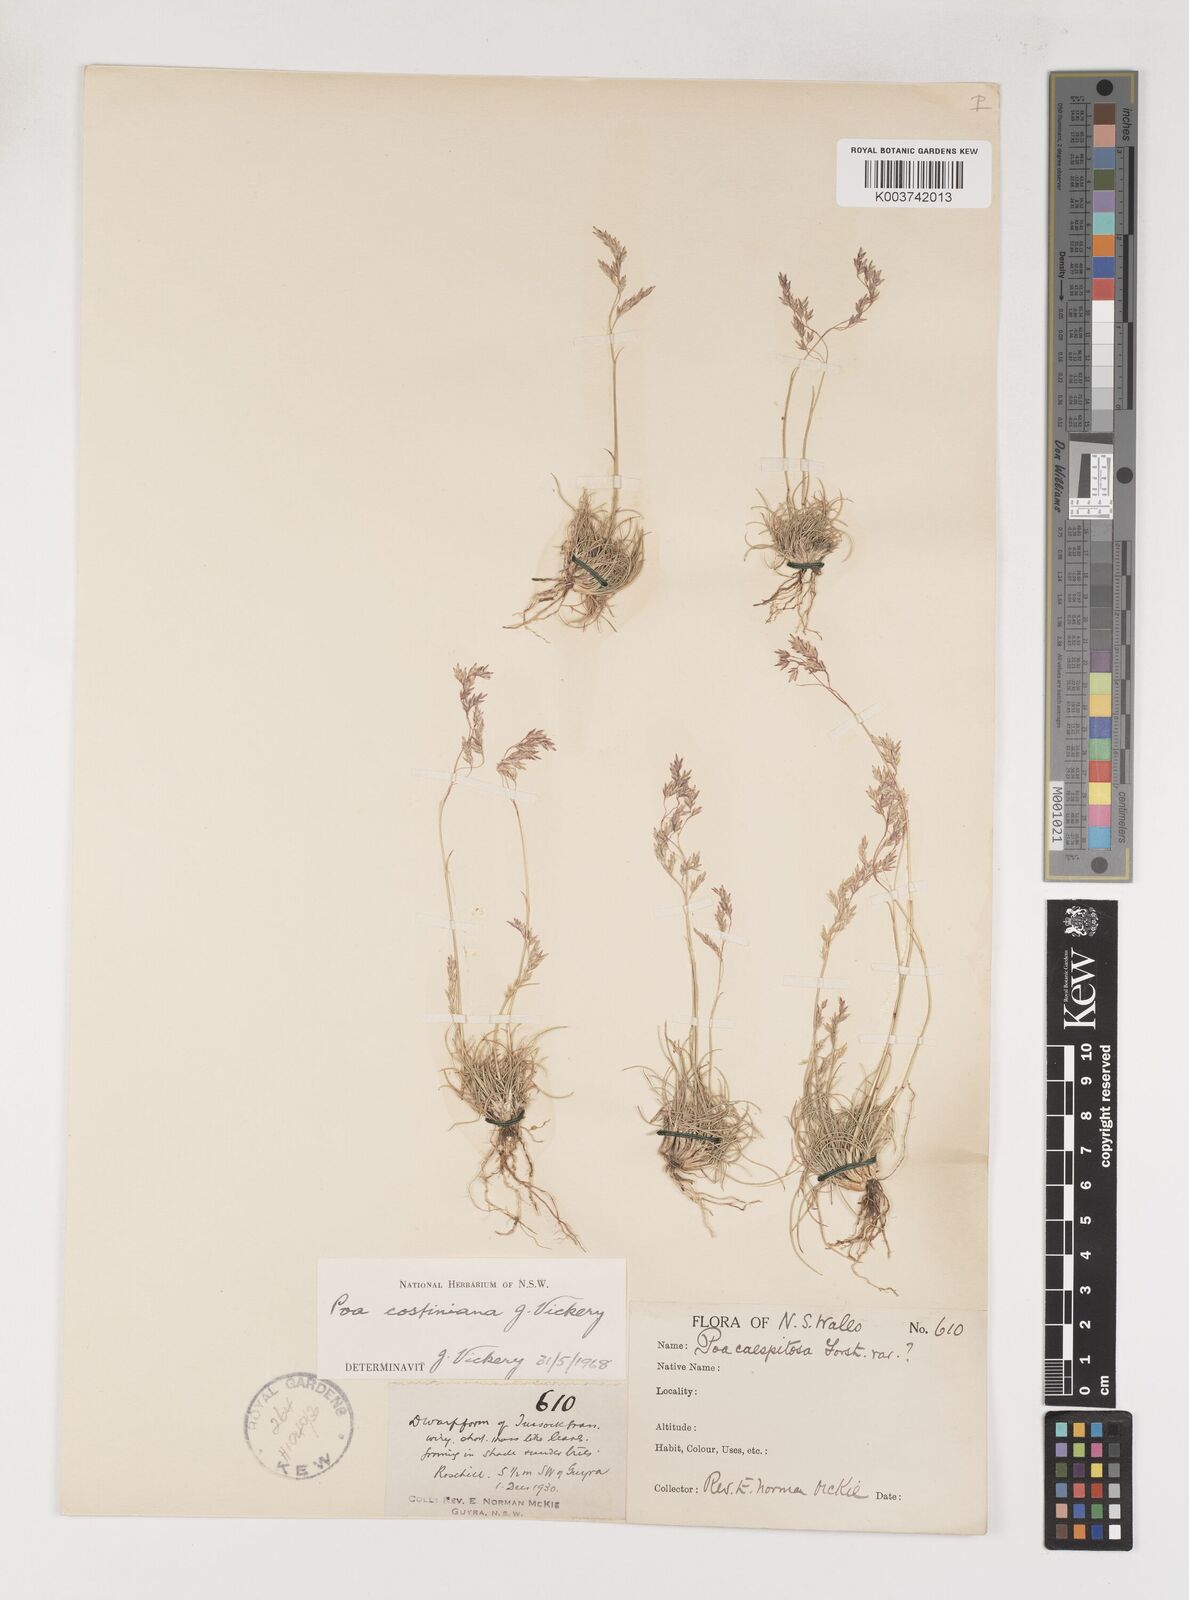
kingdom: Plantae
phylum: Tracheophyta
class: Liliopsida
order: Poales
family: Poaceae
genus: Poa
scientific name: Poa costiniana
